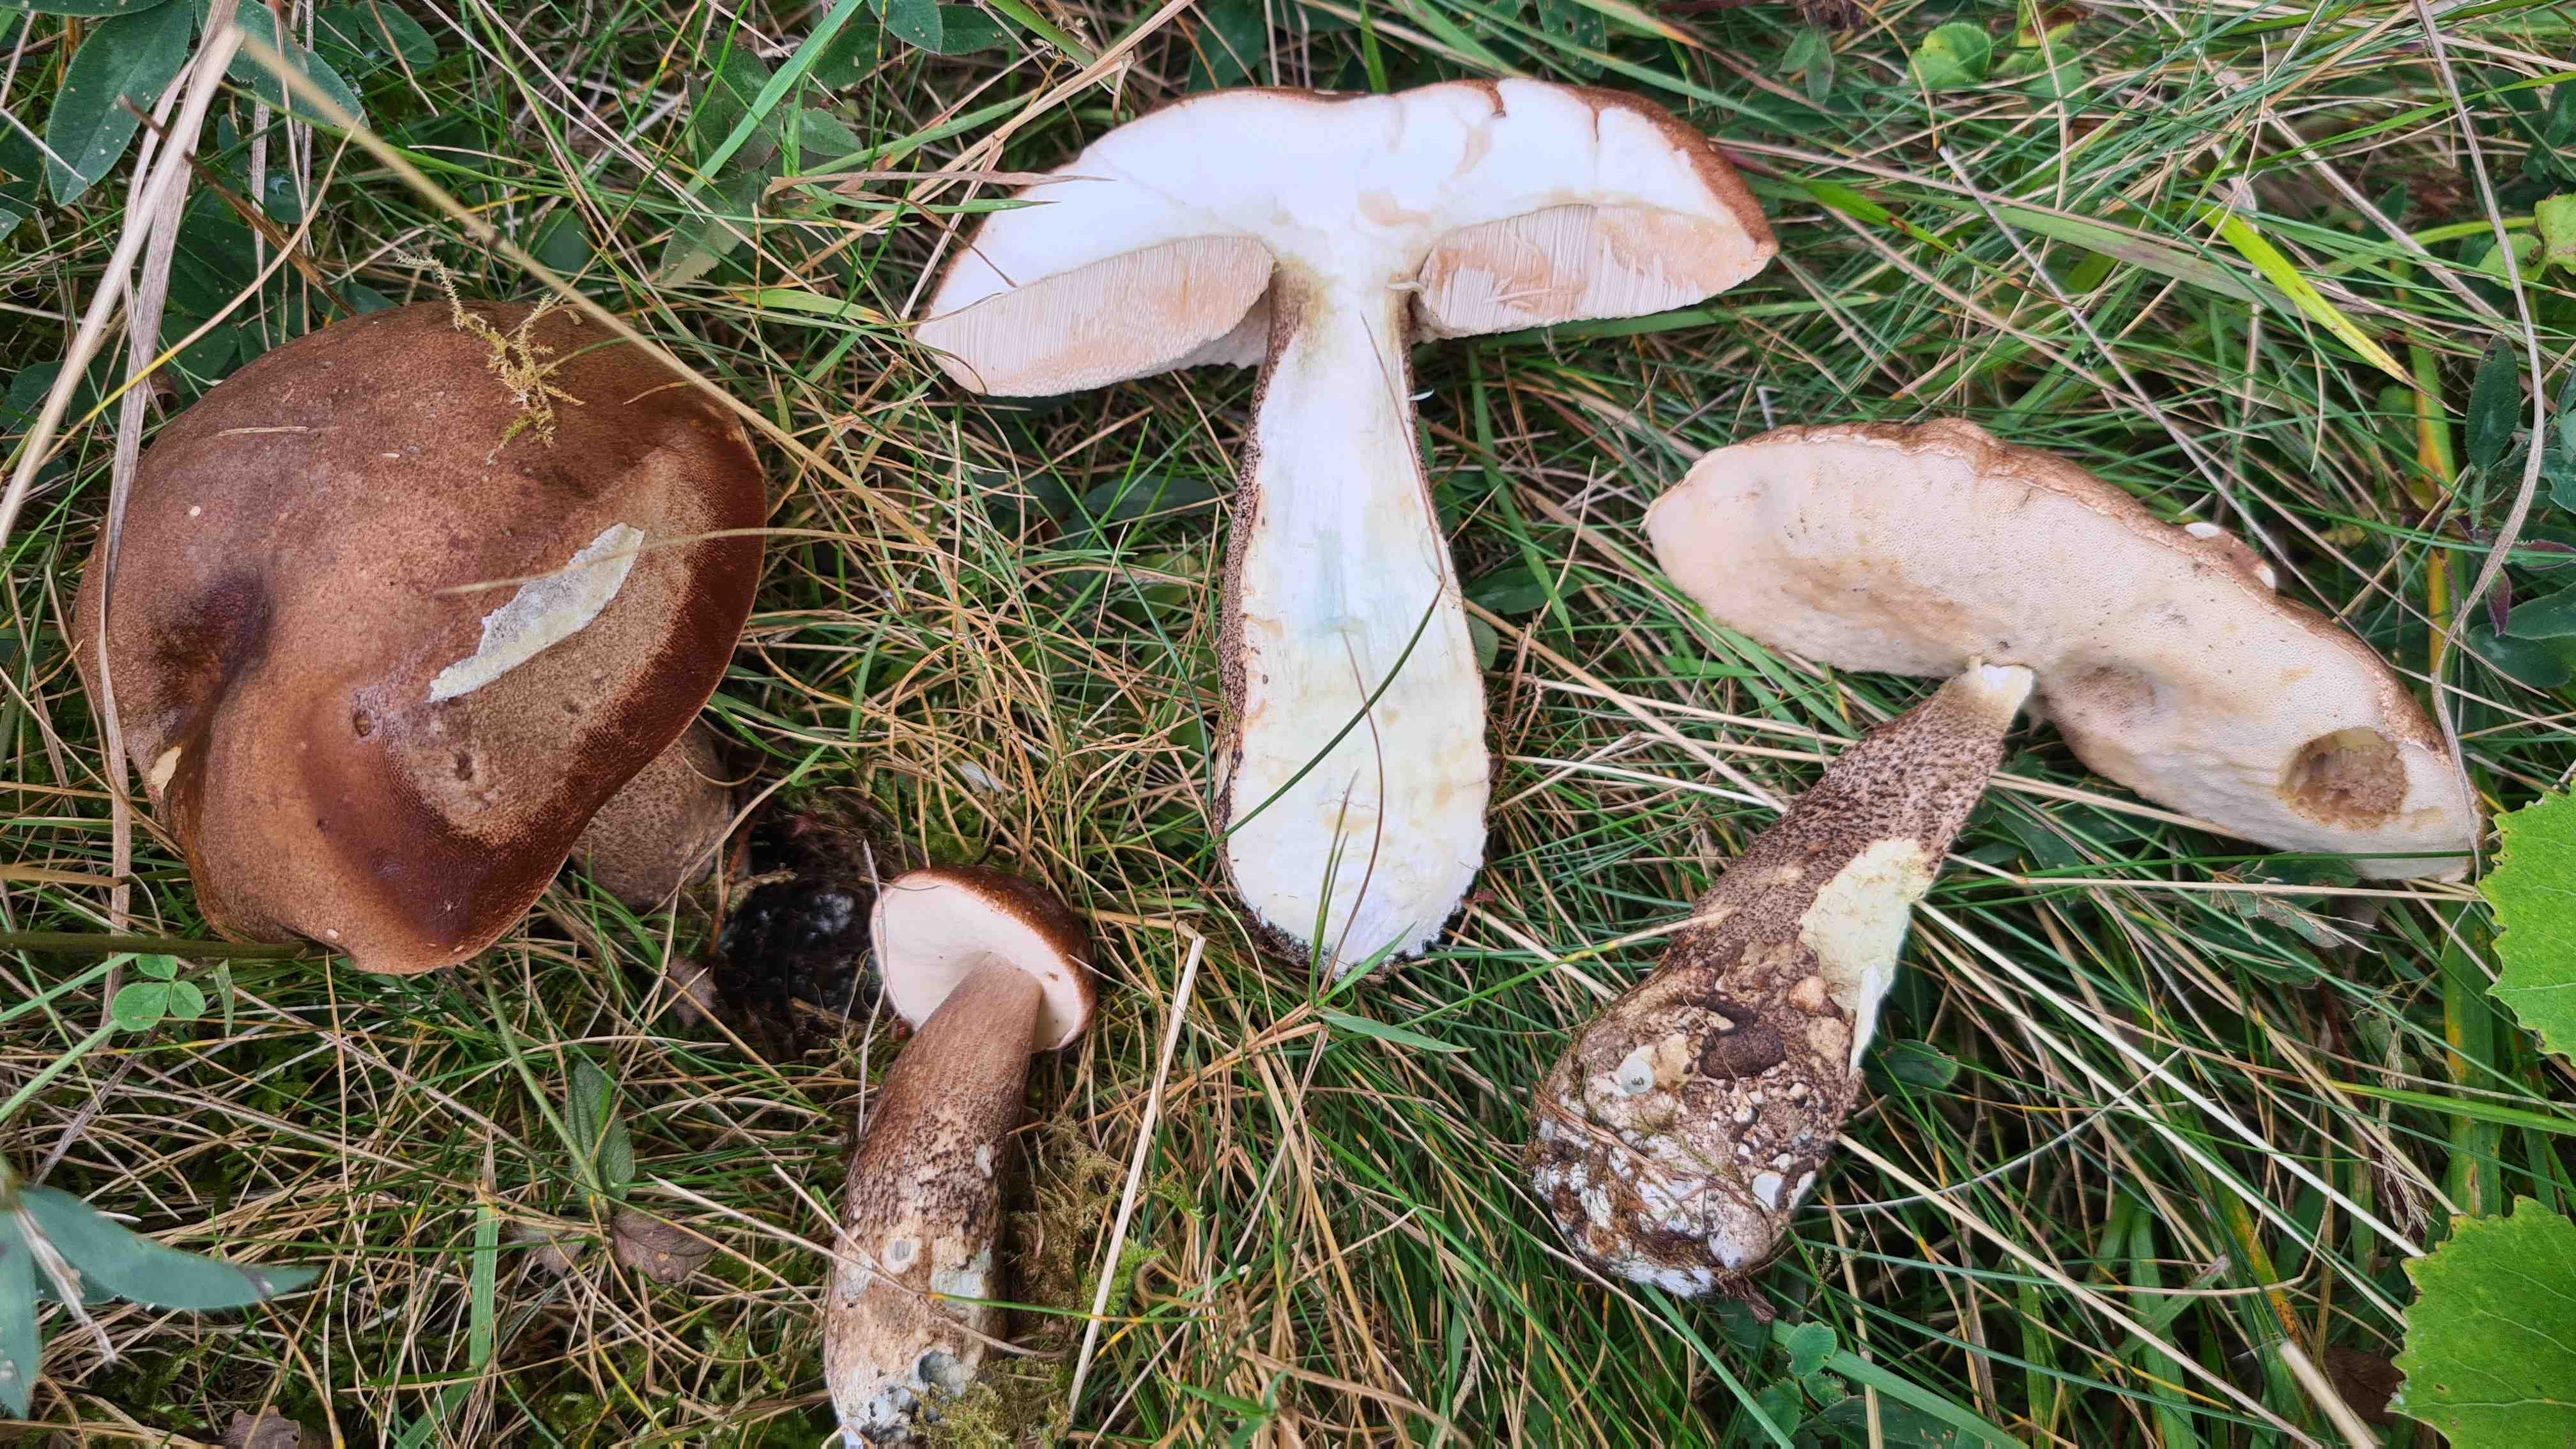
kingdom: Fungi
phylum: Basidiomycota
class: Agaricomycetes
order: Boletales
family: Boletaceae
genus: Leccinum
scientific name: Leccinum duriusculum
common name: poppel-skælrørhat
